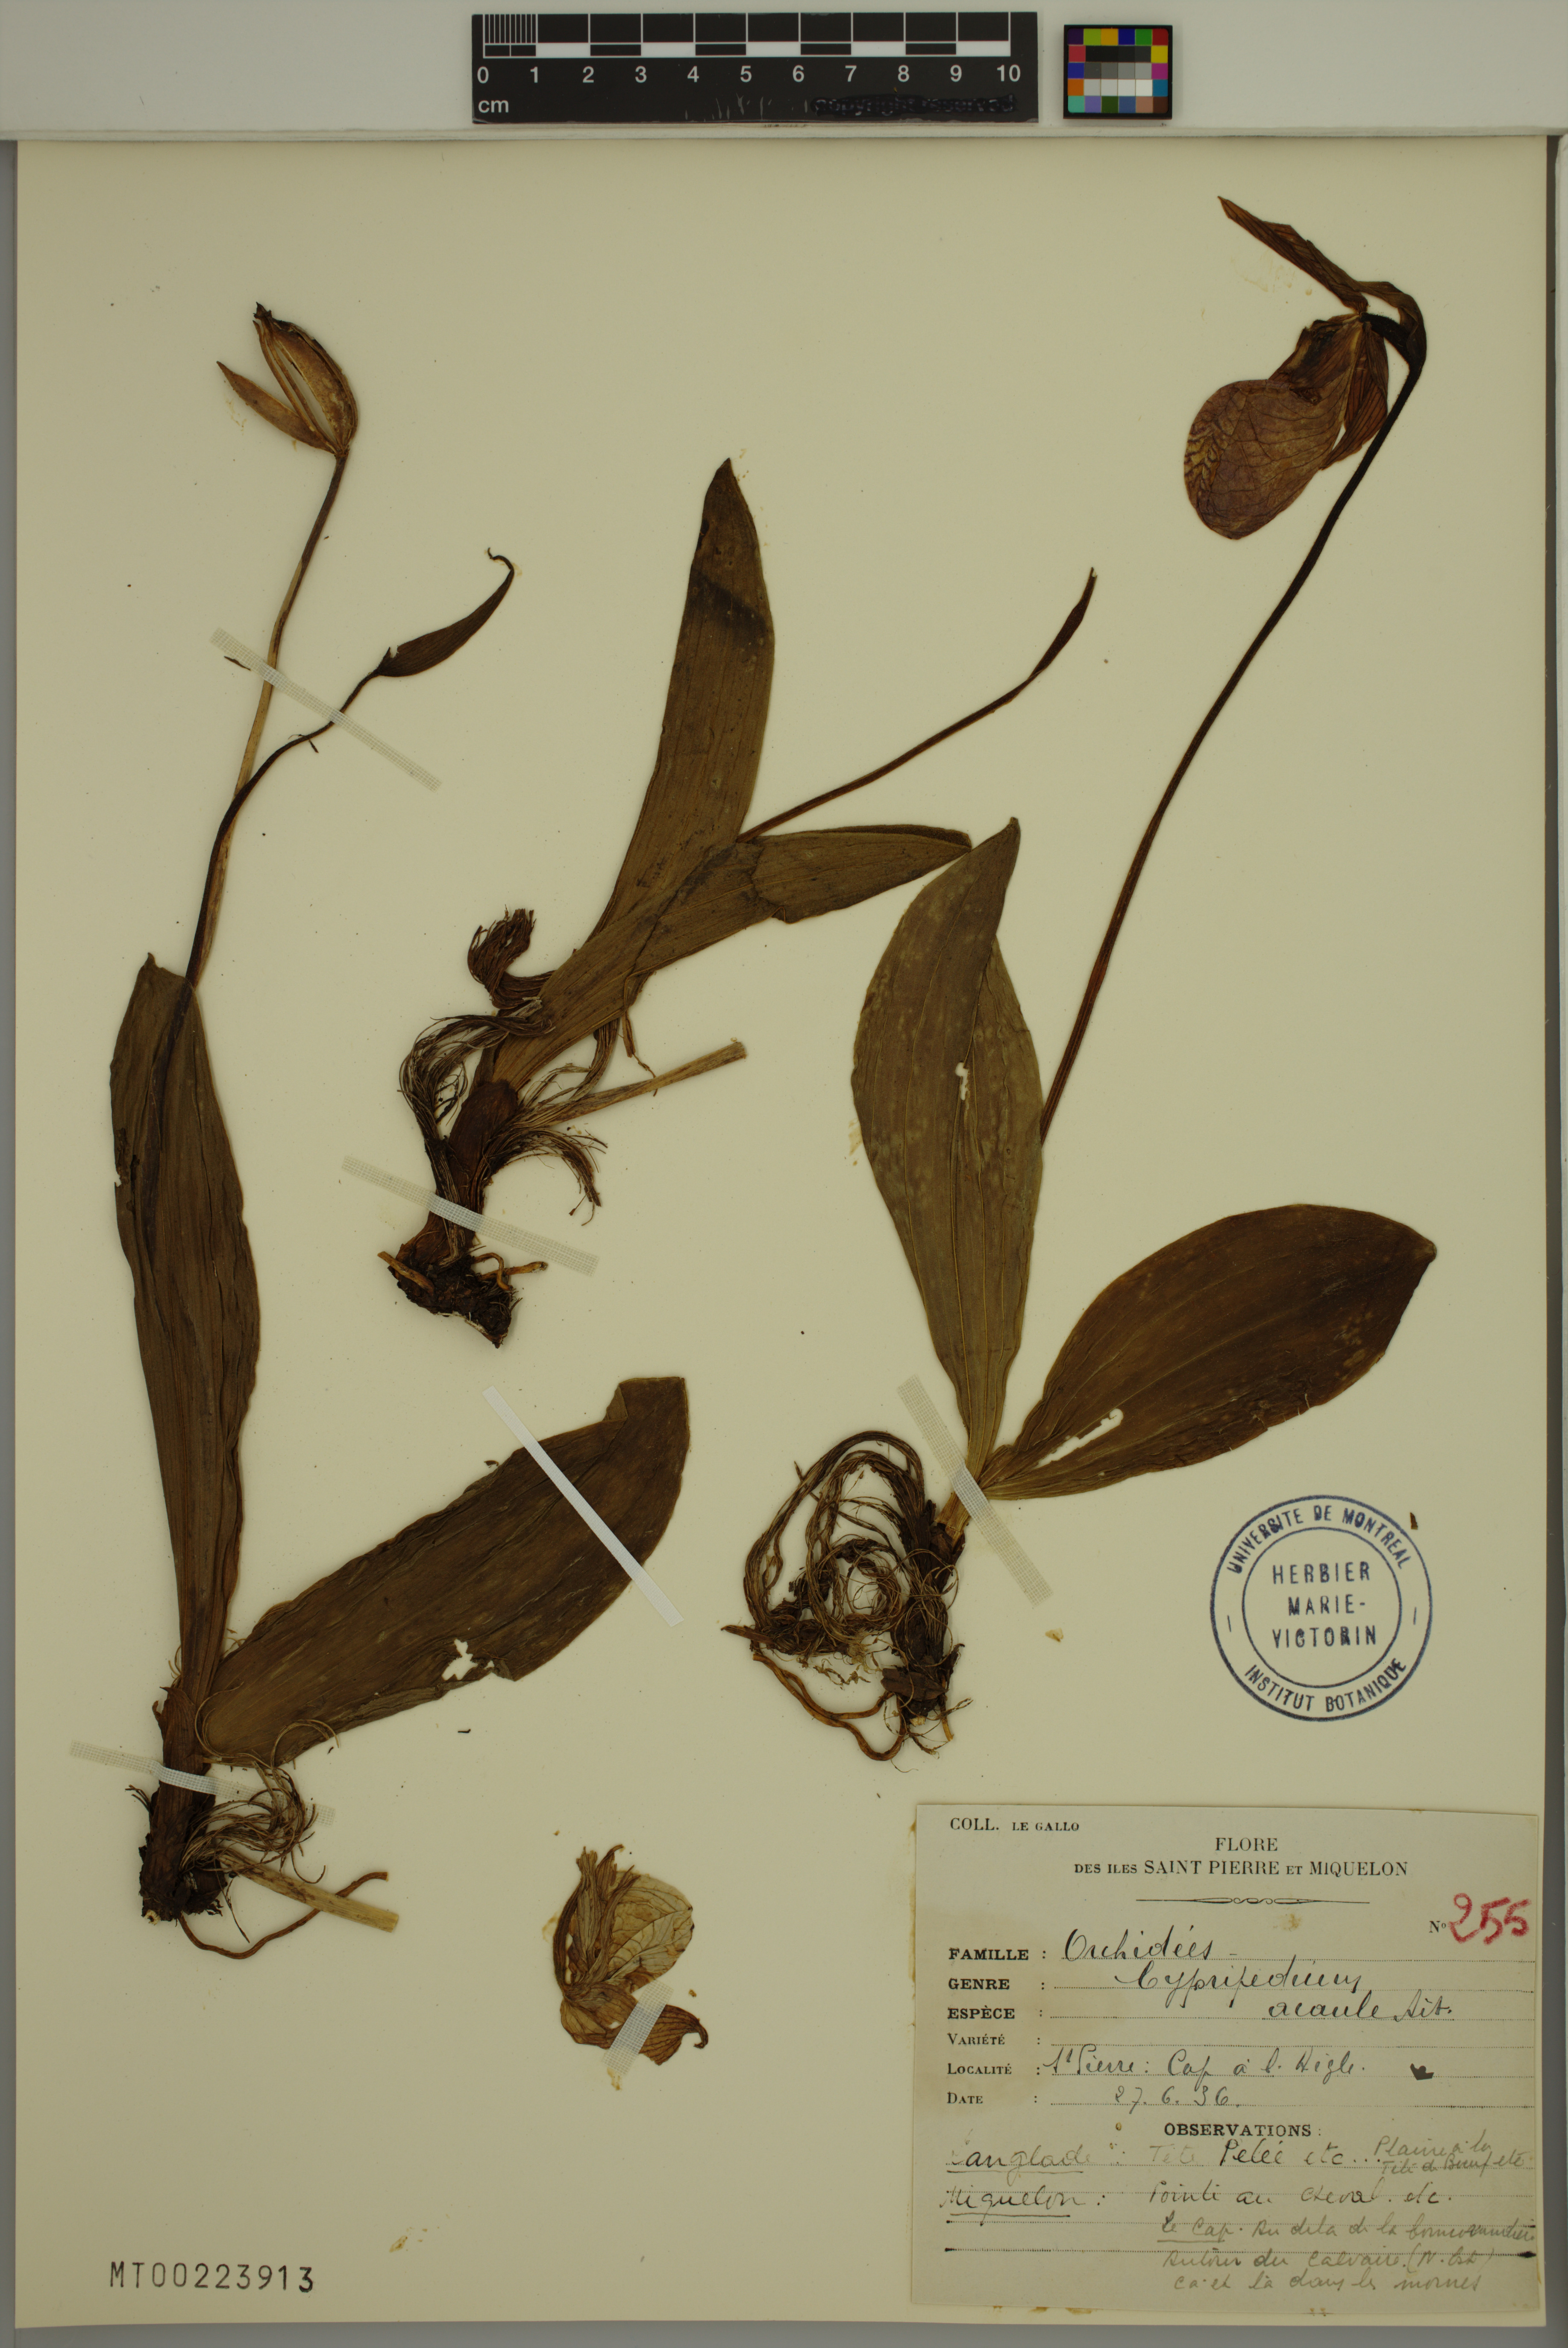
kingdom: Plantae
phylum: Tracheophyta
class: Liliopsida
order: Asparagales
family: Orchidaceae
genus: Cypripedium
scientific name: Cypripedium acaule
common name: Pink lady's-slipper
